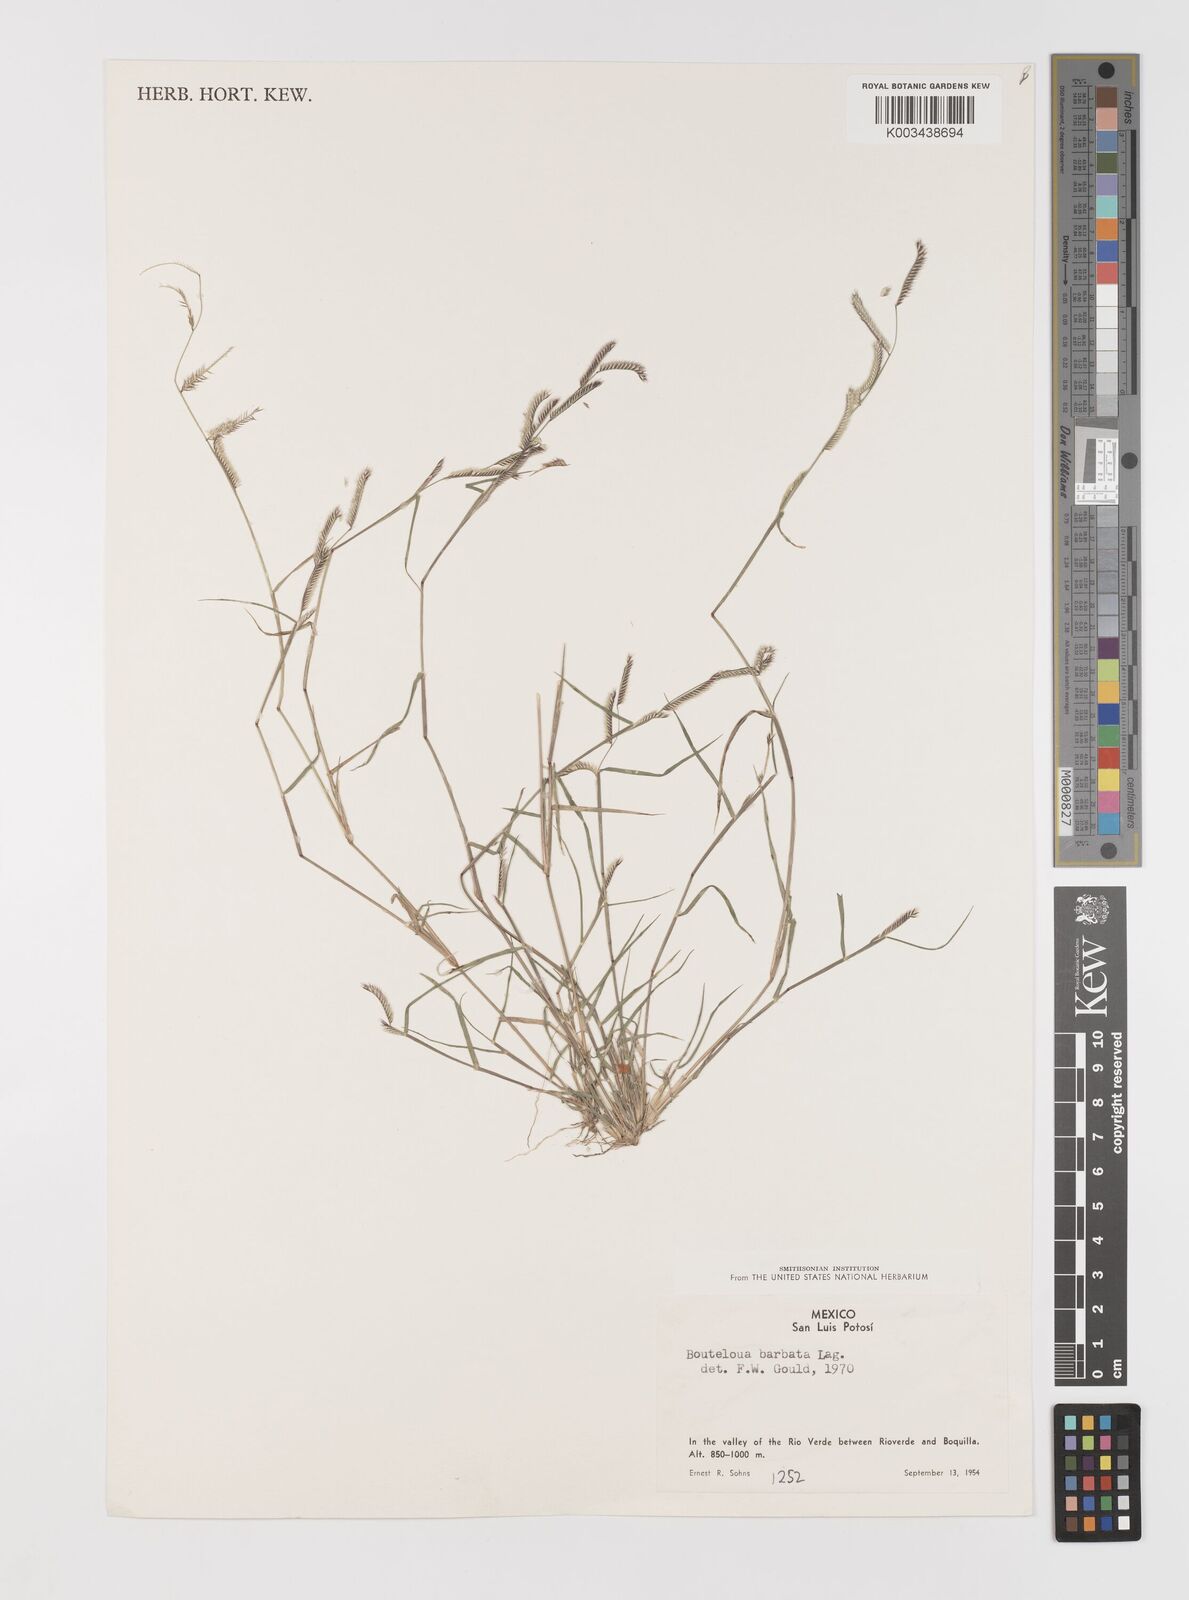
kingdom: Plantae
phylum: Tracheophyta
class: Liliopsida
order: Poales
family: Poaceae
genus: Bouteloua
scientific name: Bouteloua
